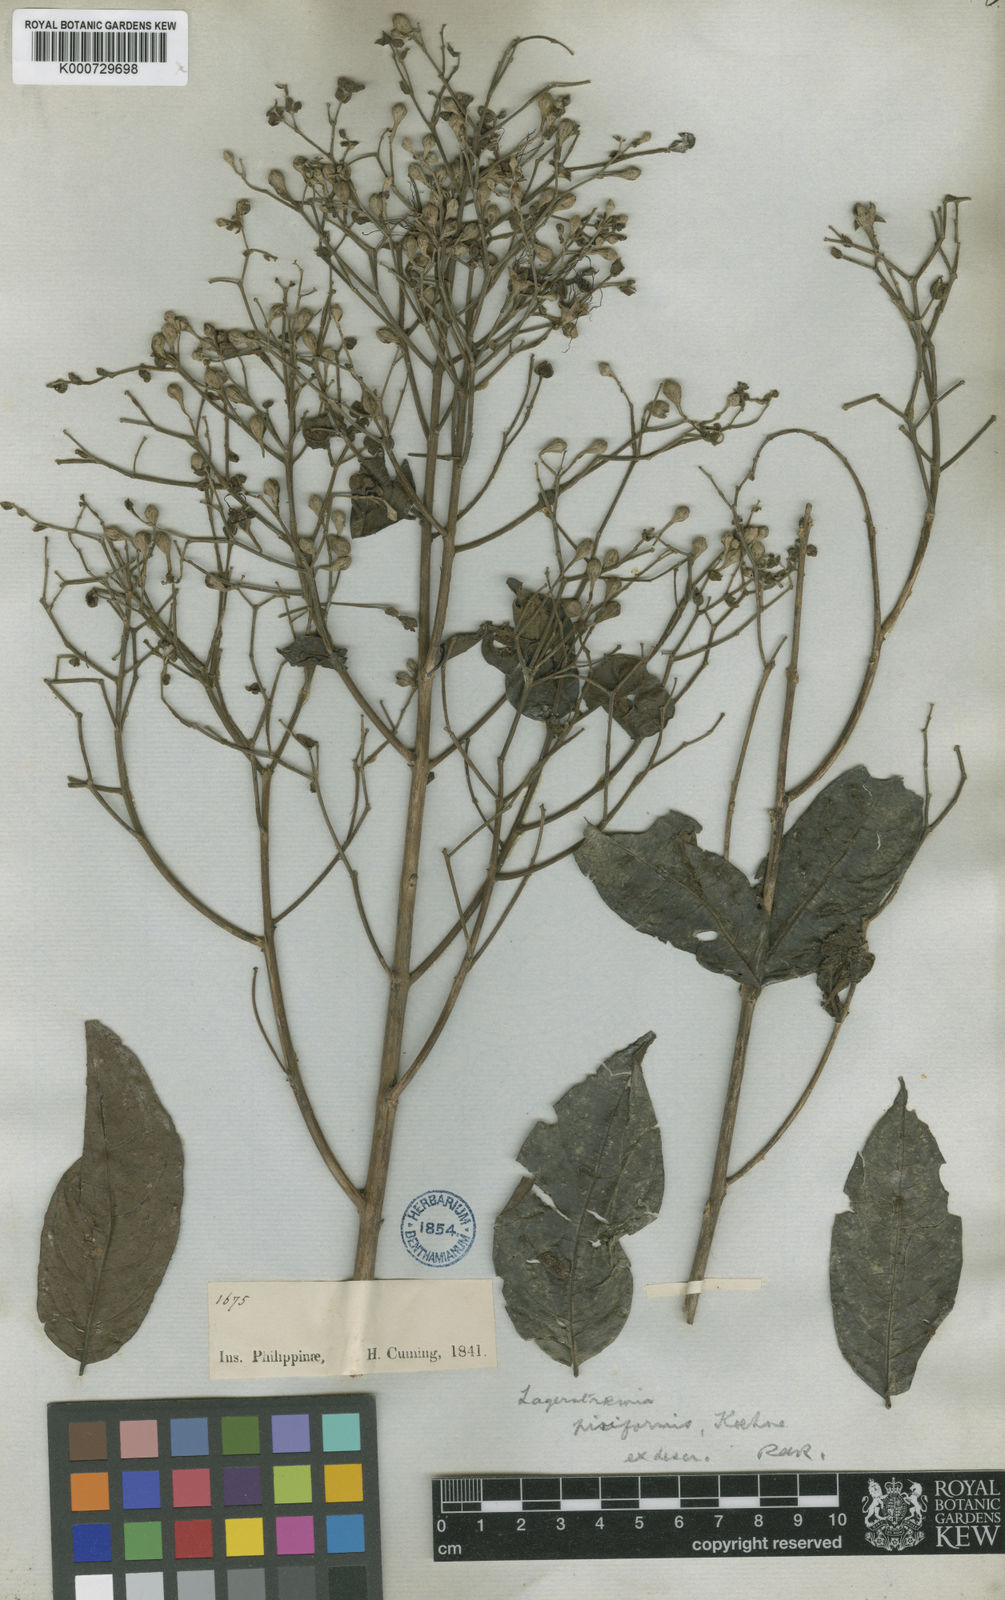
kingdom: Plantae
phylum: Tracheophyta
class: Magnoliopsida
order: Myrtales
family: Lythraceae
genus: Lagerstroemia
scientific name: Lagerstroemia paniculata
